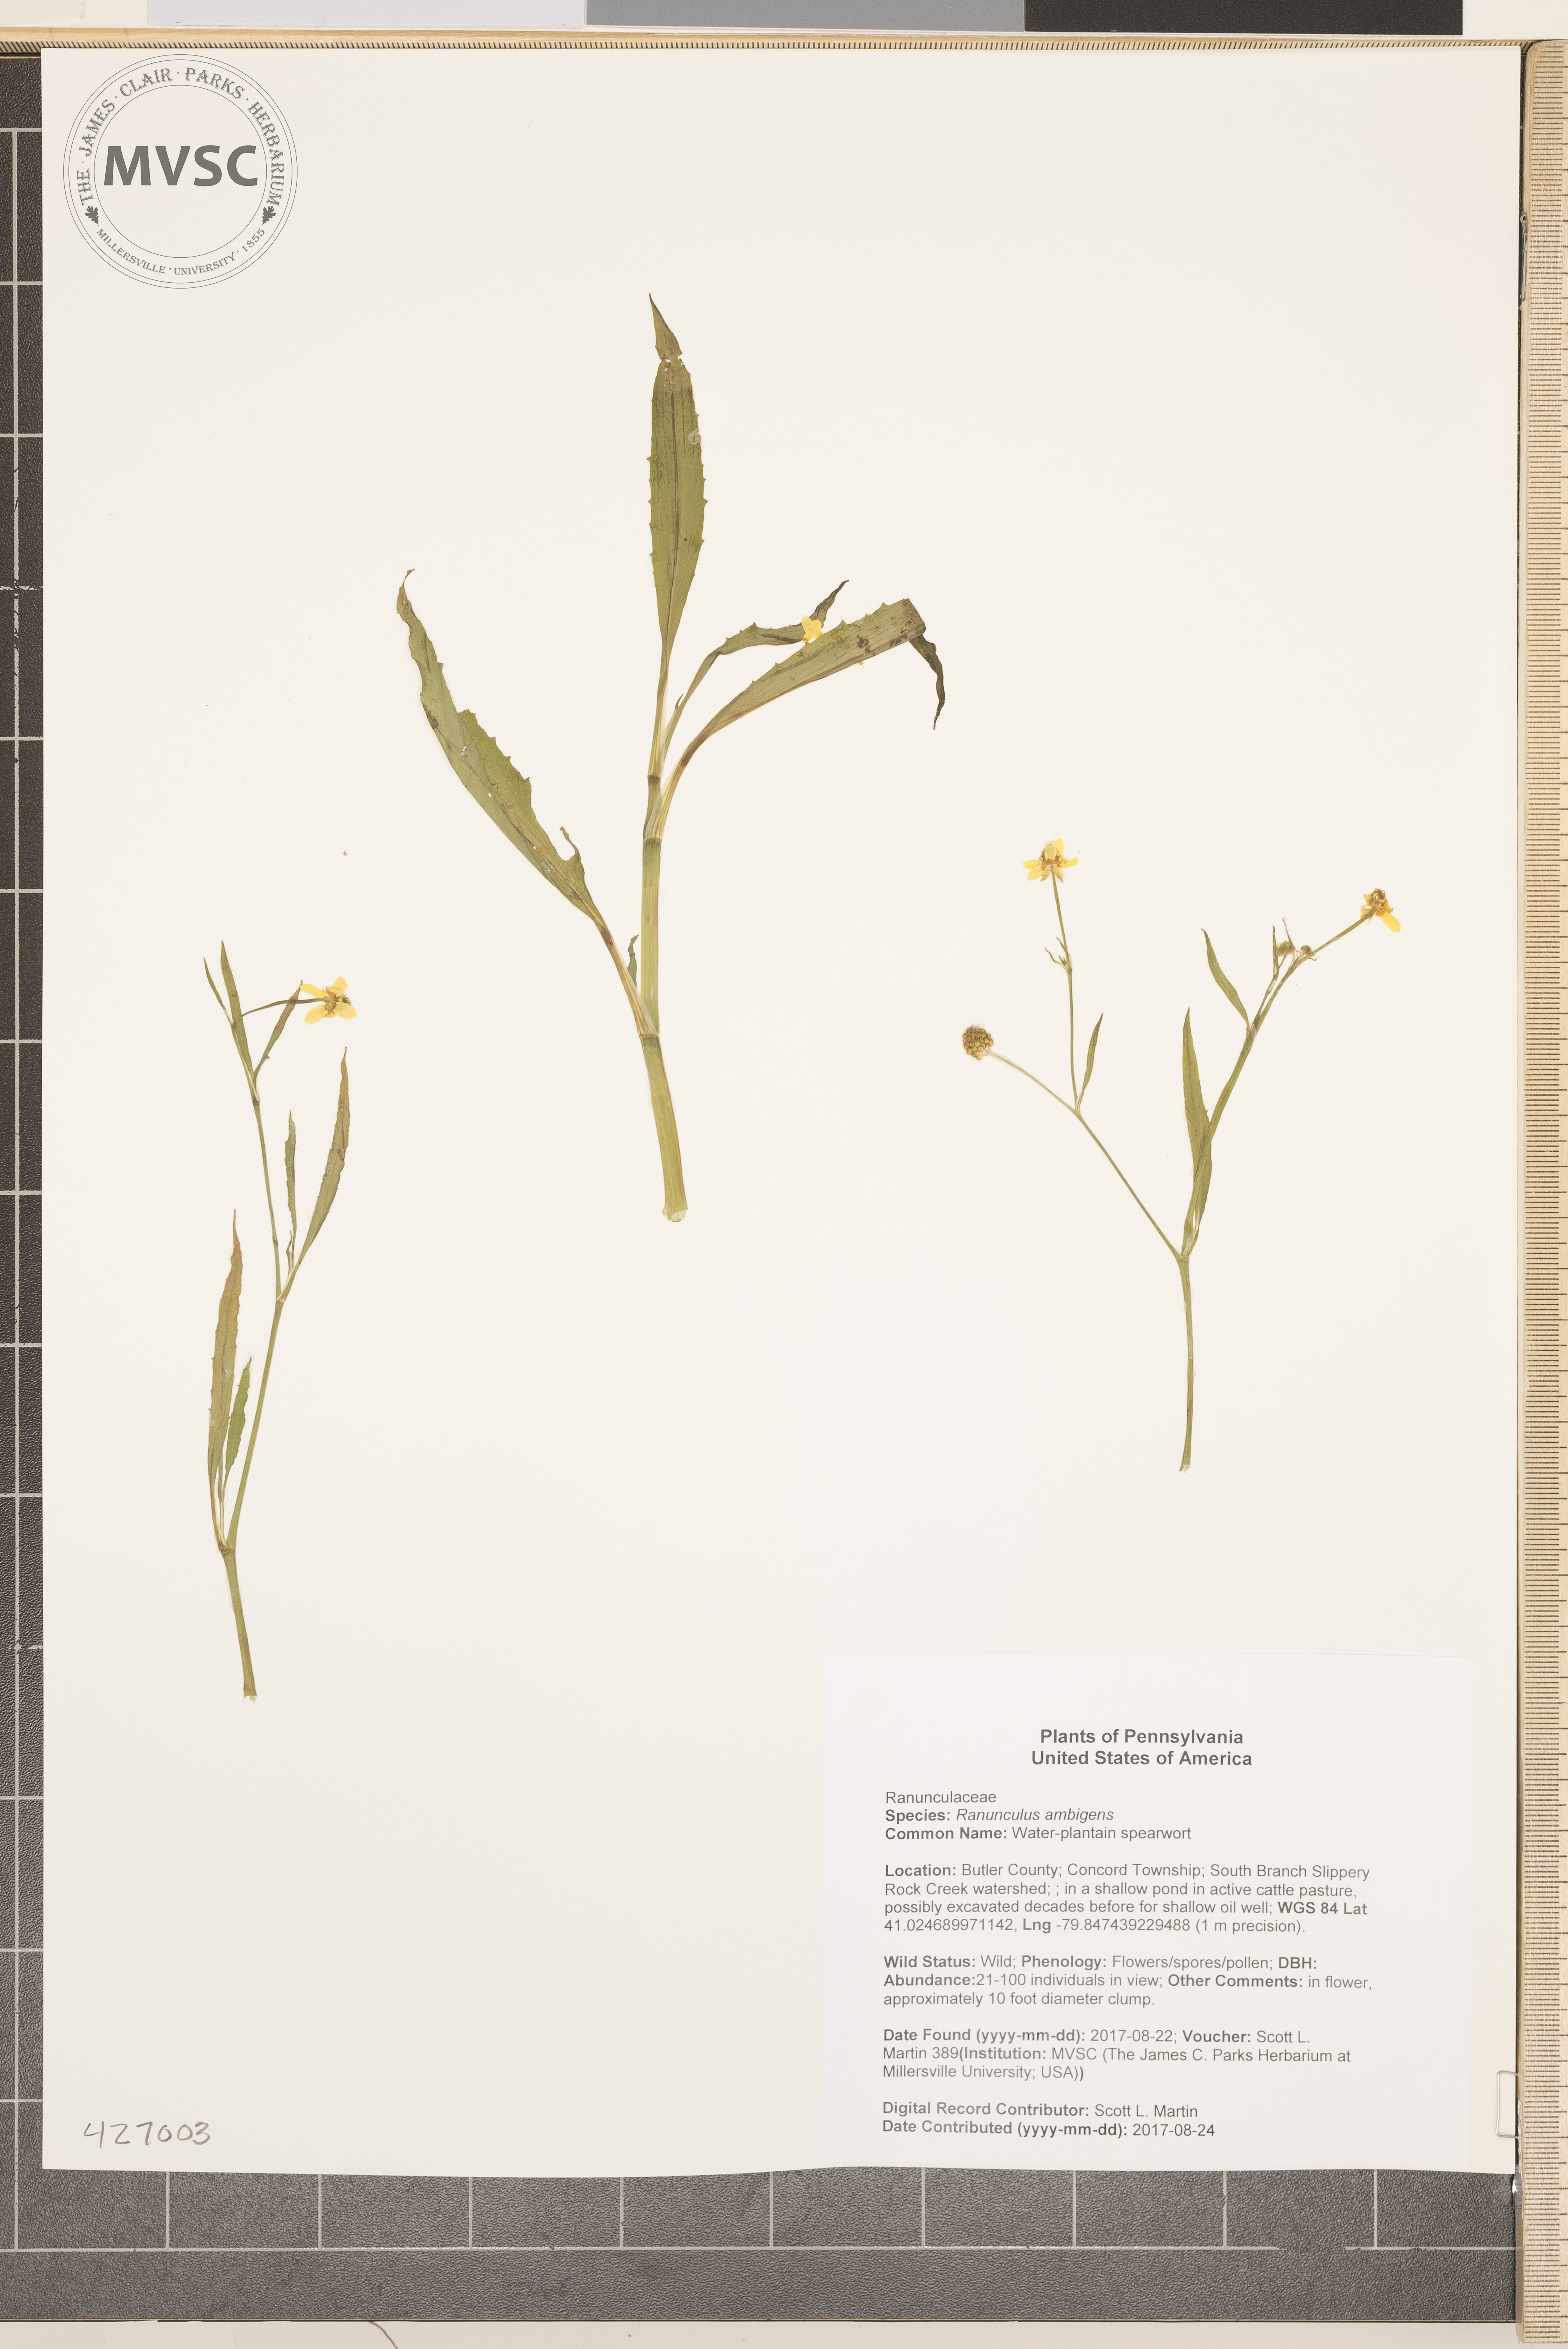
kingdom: Plantae
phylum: Tracheophyta
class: Magnoliopsida
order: Ranunculales
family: Ranunculaceae
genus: Ranunculus
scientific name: Ranunculus ambigens
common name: Water-plantain spearwort
